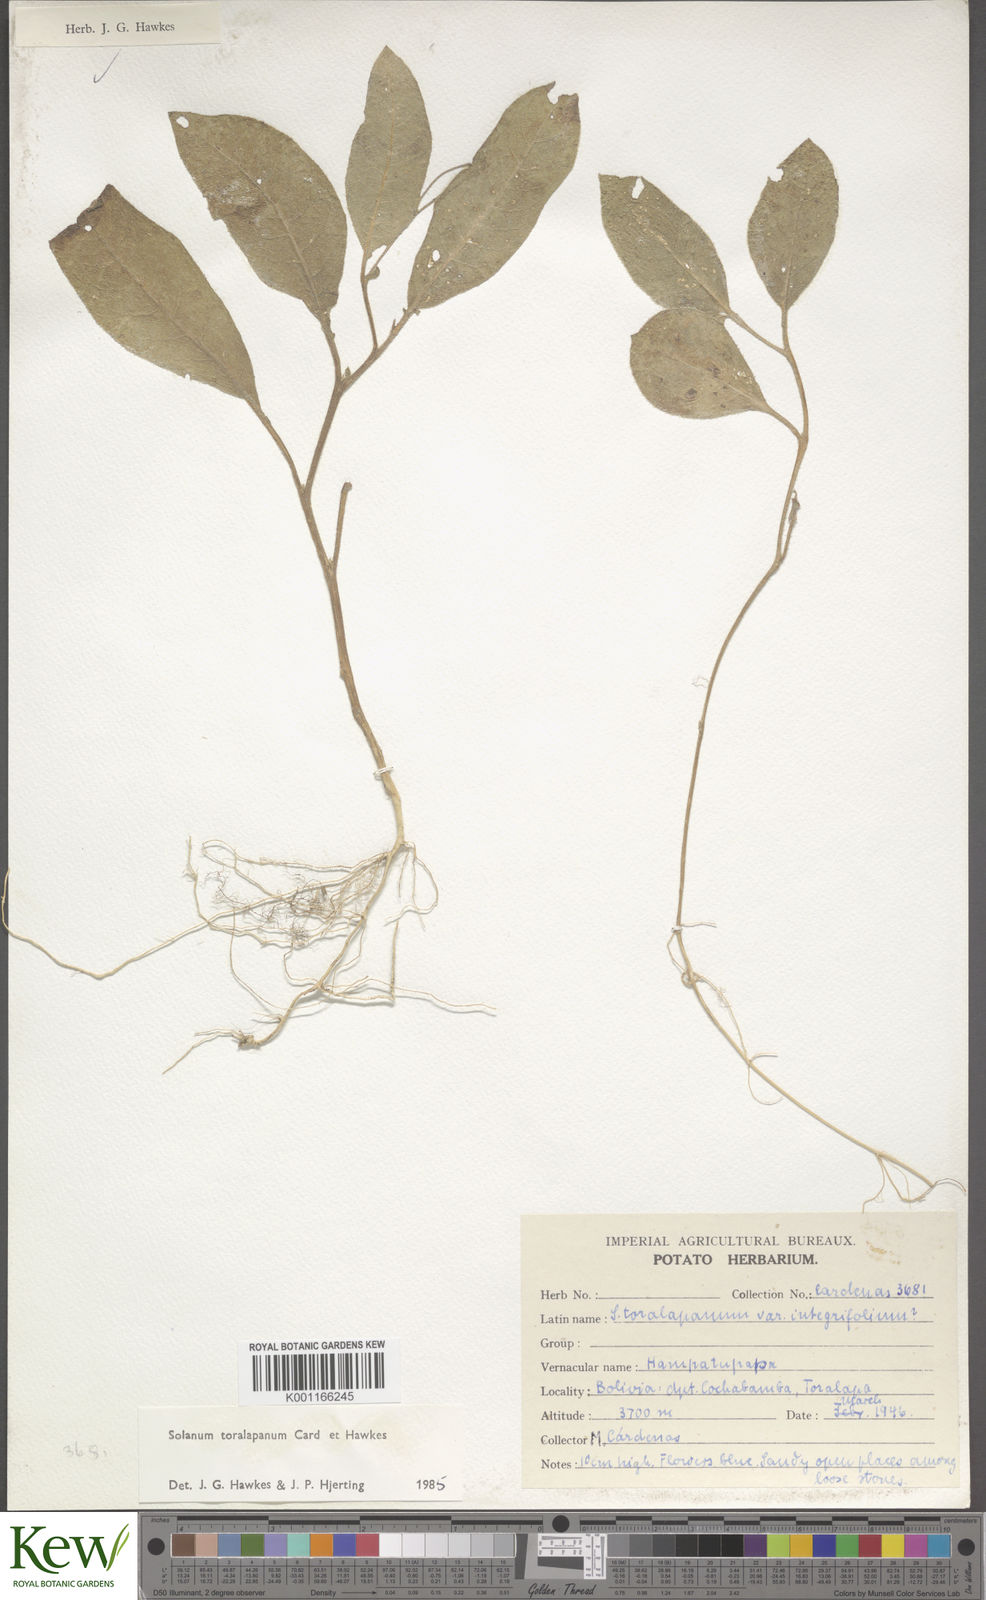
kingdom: Plantae
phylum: Tracheophyta
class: Magnoliopsida
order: Solanales
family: Solanaceae
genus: Solanum
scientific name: Solanum
